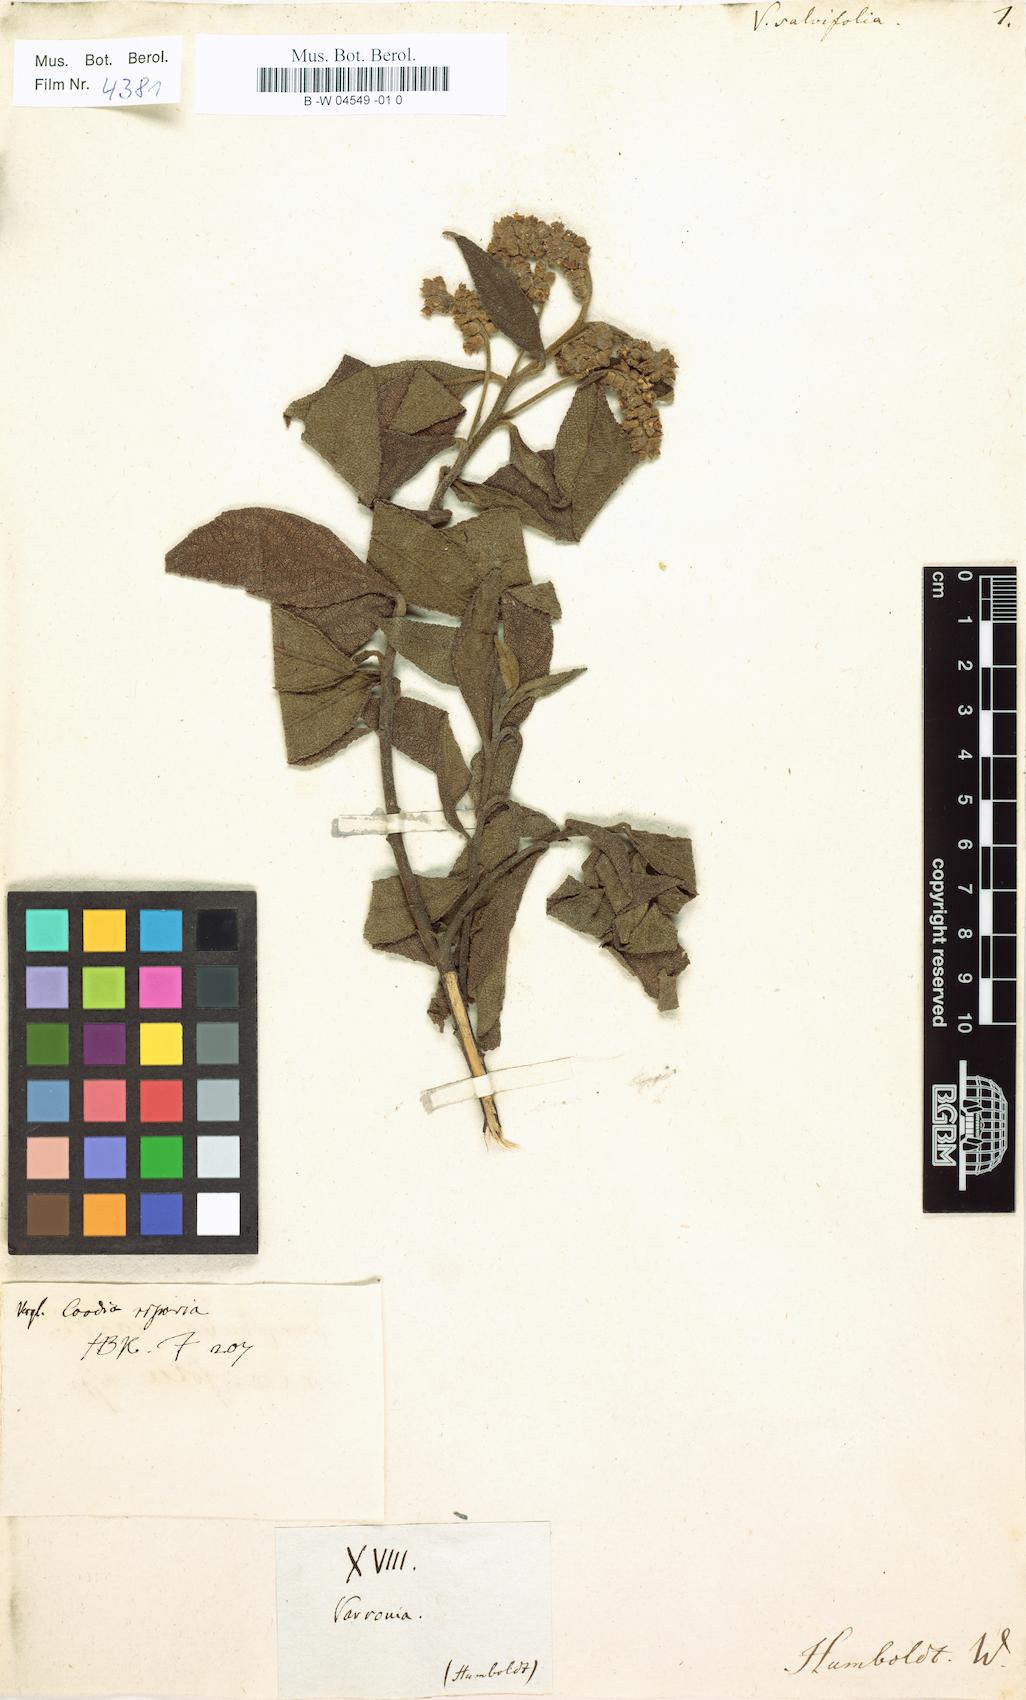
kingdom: Plantae
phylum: Tracheophyta
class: Magnoliopsida
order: Boraginales
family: Cordiaceae
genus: Varronia
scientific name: Varronia salviifolia
